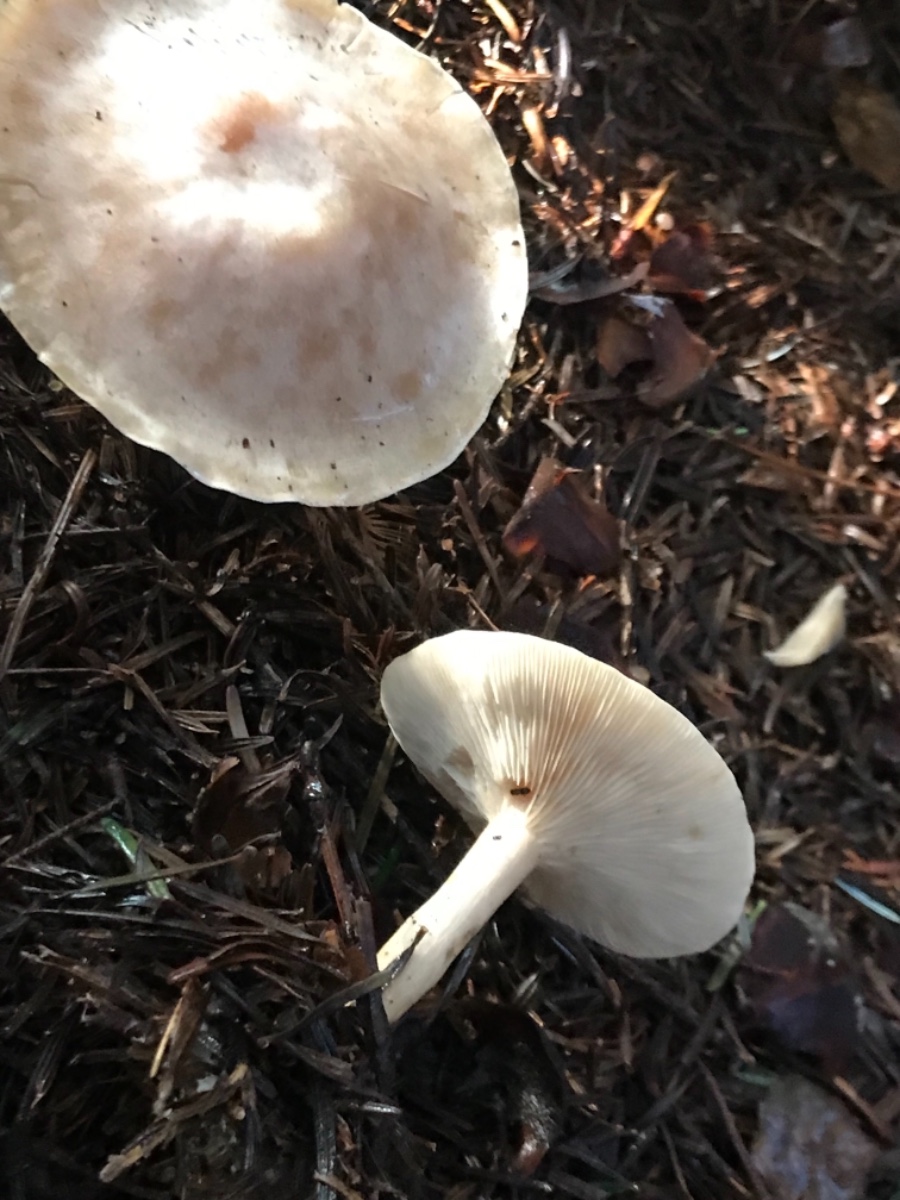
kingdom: Fungi
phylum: Basidiomycota
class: Agaricomycetes
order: Agaricales
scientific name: Agaricales
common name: champignonordenen
